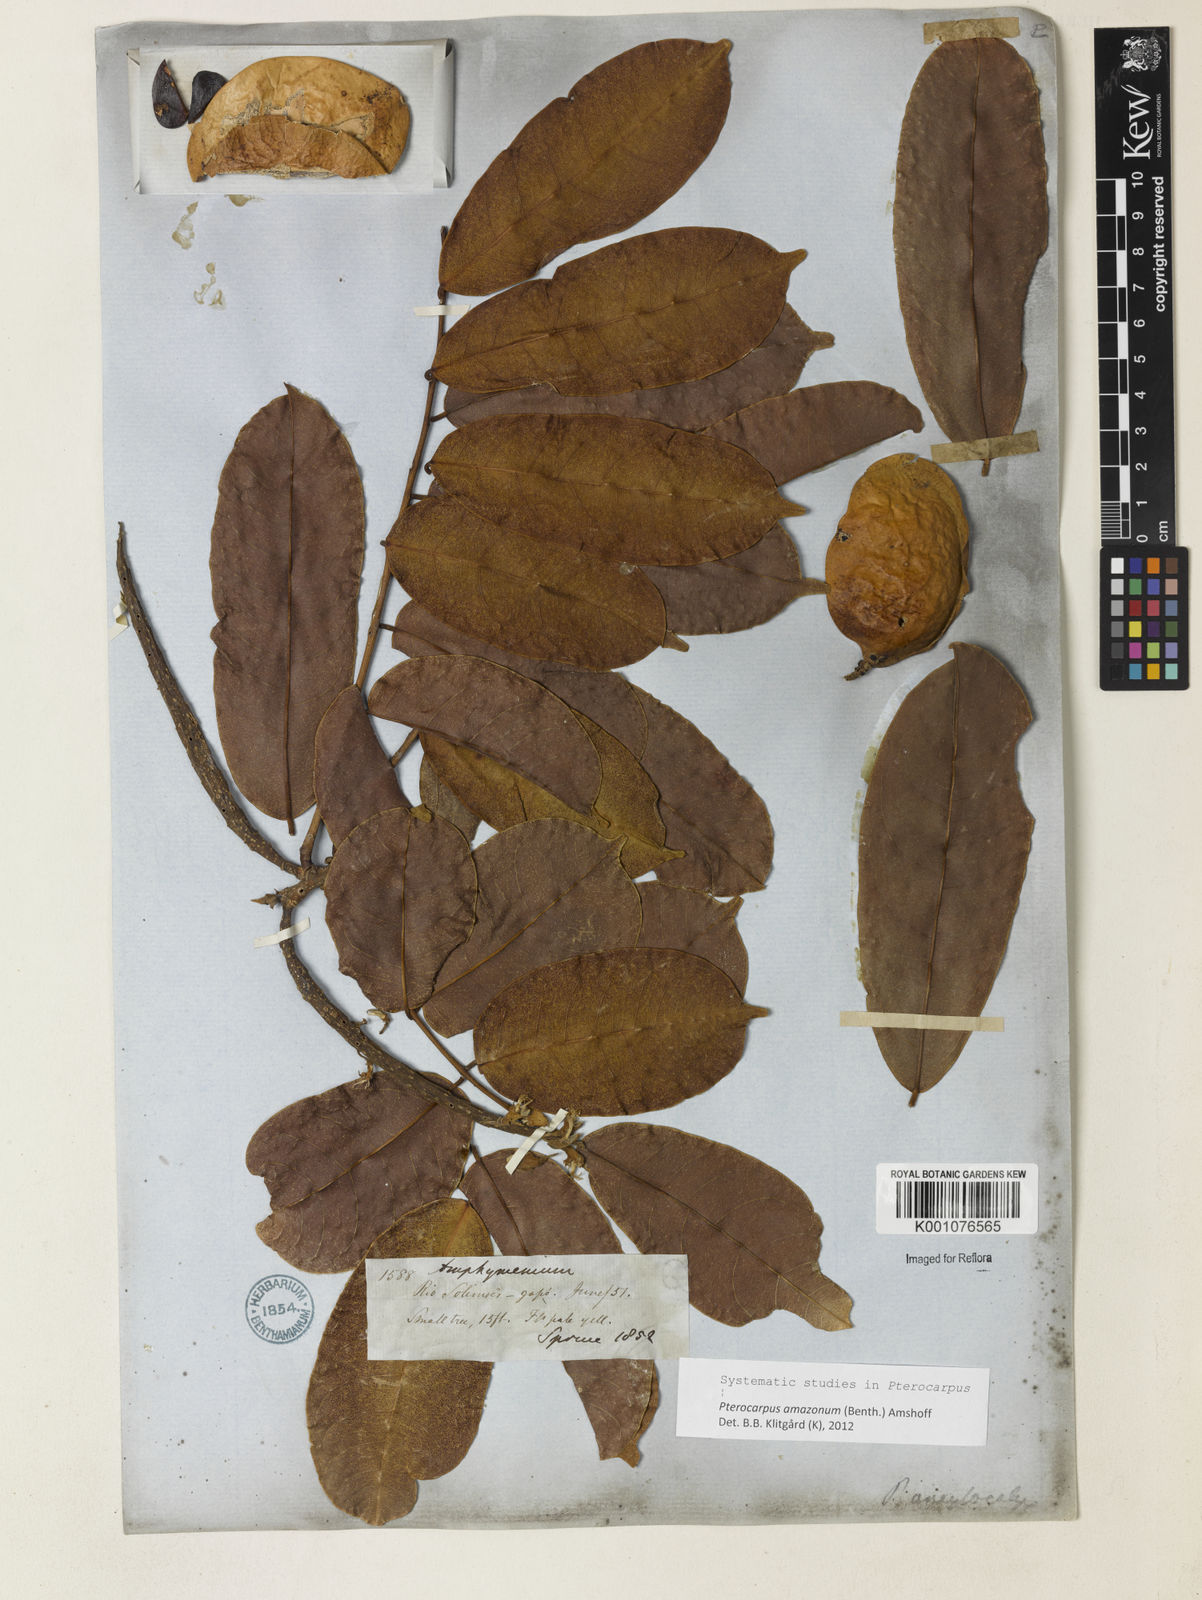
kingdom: Plantae
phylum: Tracheophyta
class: Magnoliopsida
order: Fabales
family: Fabaceae
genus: Pterocarpus
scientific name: Pterocarpus amazonum
